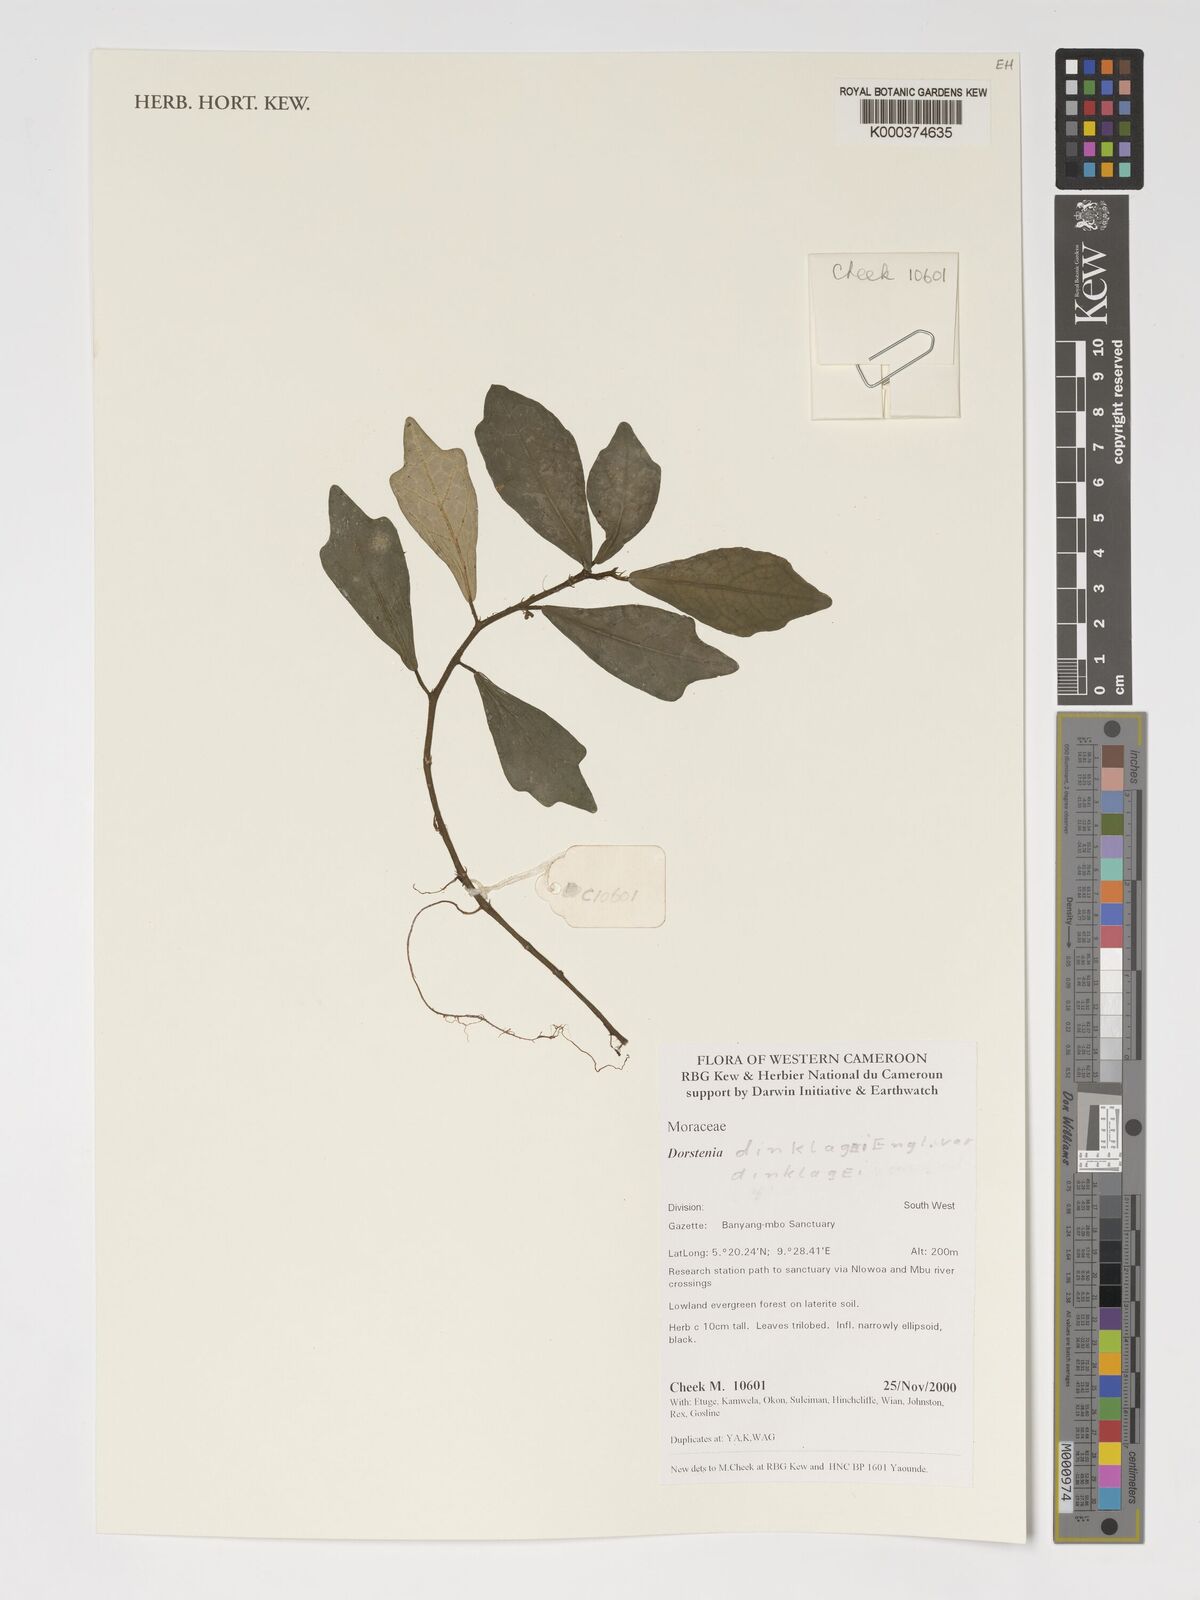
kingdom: Plantae
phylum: Tracheophyta
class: Magnoliopsida
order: Rosales
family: Moraceae
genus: Dorstenia
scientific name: Dorstenia dinklagei
